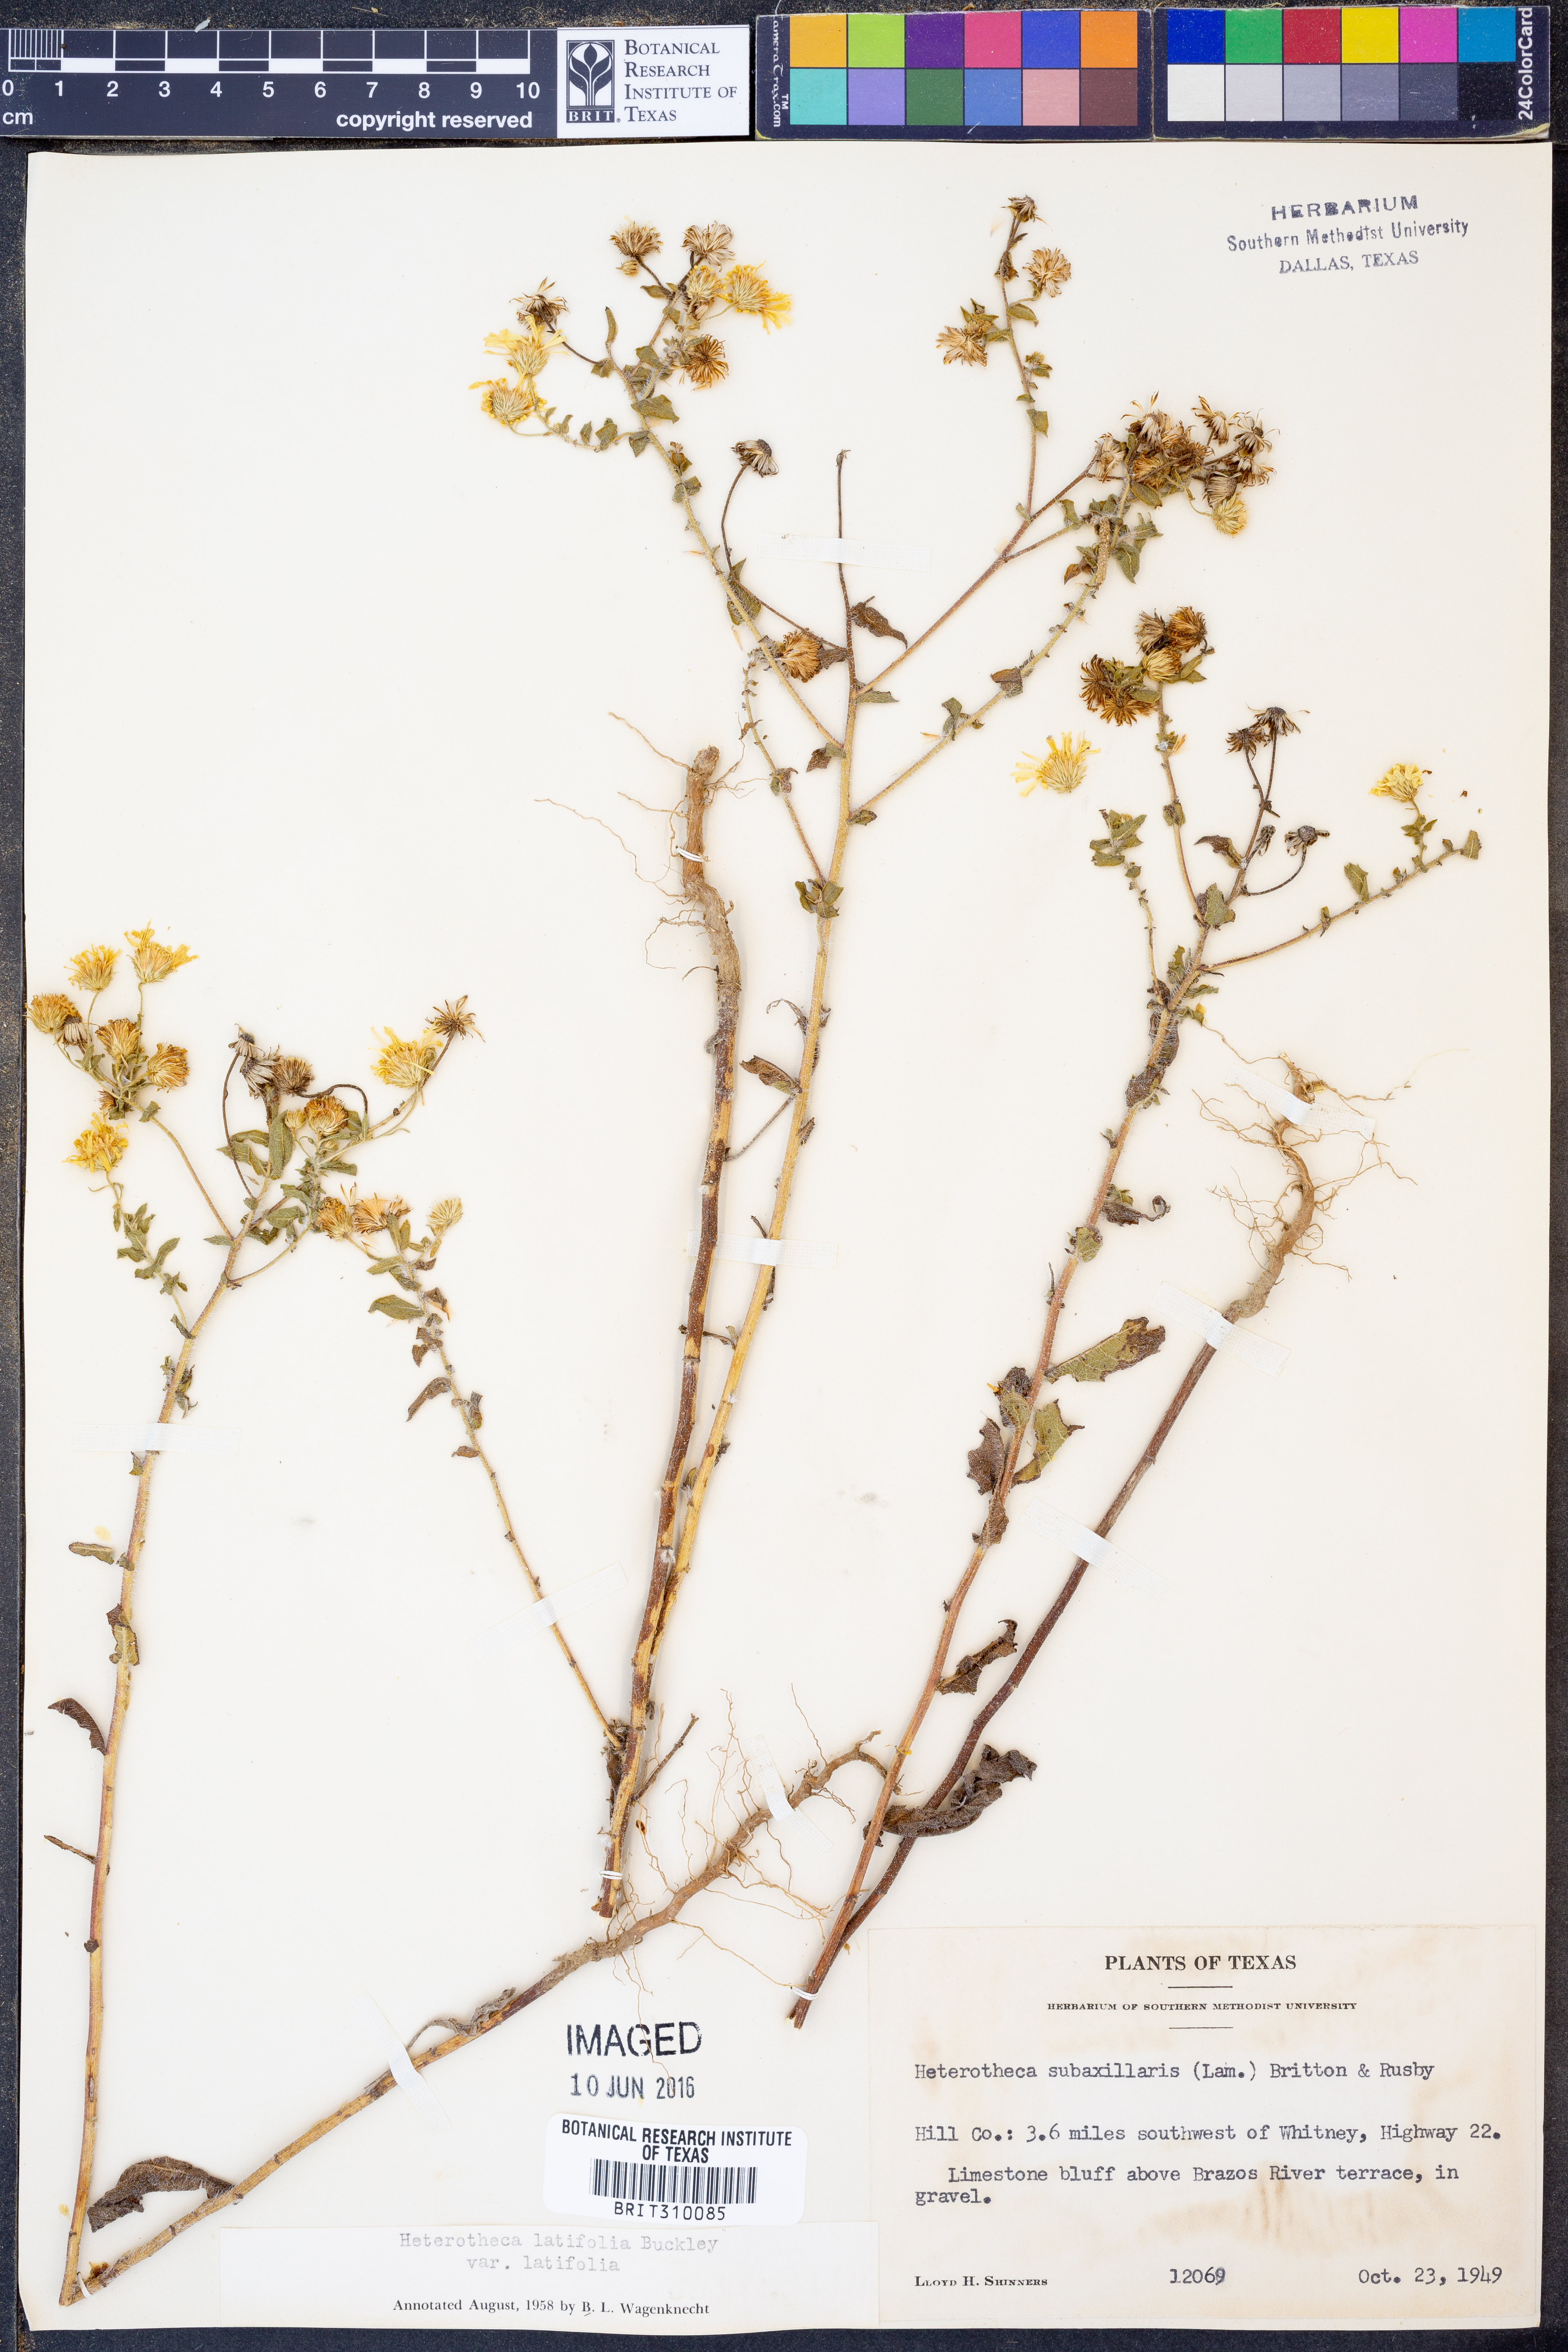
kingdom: Plantae
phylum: Tracheophyta
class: Magnoliopsida
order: Asterales
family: Asteraceae
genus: Heterotheca
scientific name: Heterotheca subaxillaris
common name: Camphorweed
